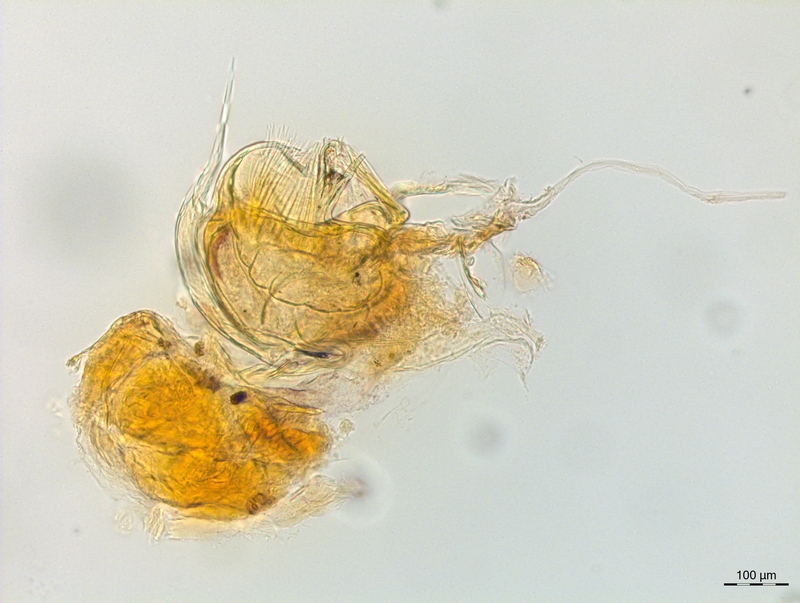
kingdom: Animalia
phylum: Arthropoda
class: Diplopoda
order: Chordeumatida
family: Craspedosomatidae
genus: Craspedosoma
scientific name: Craspedosoma slavum
